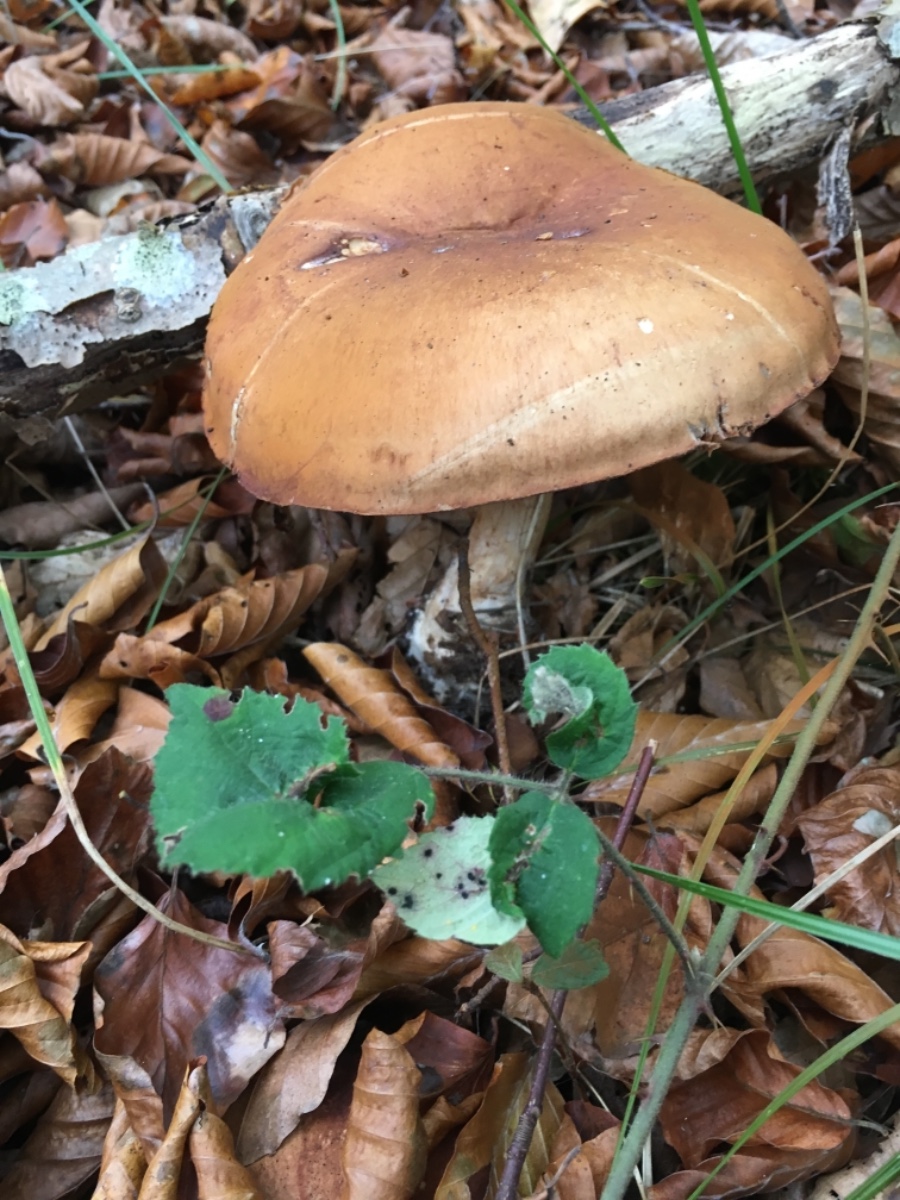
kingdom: Fungi
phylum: Basidiomycota
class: Agaricomycetes
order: Agaricales
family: Cortinariaceae
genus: Cortinarius
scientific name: Cortinarius
